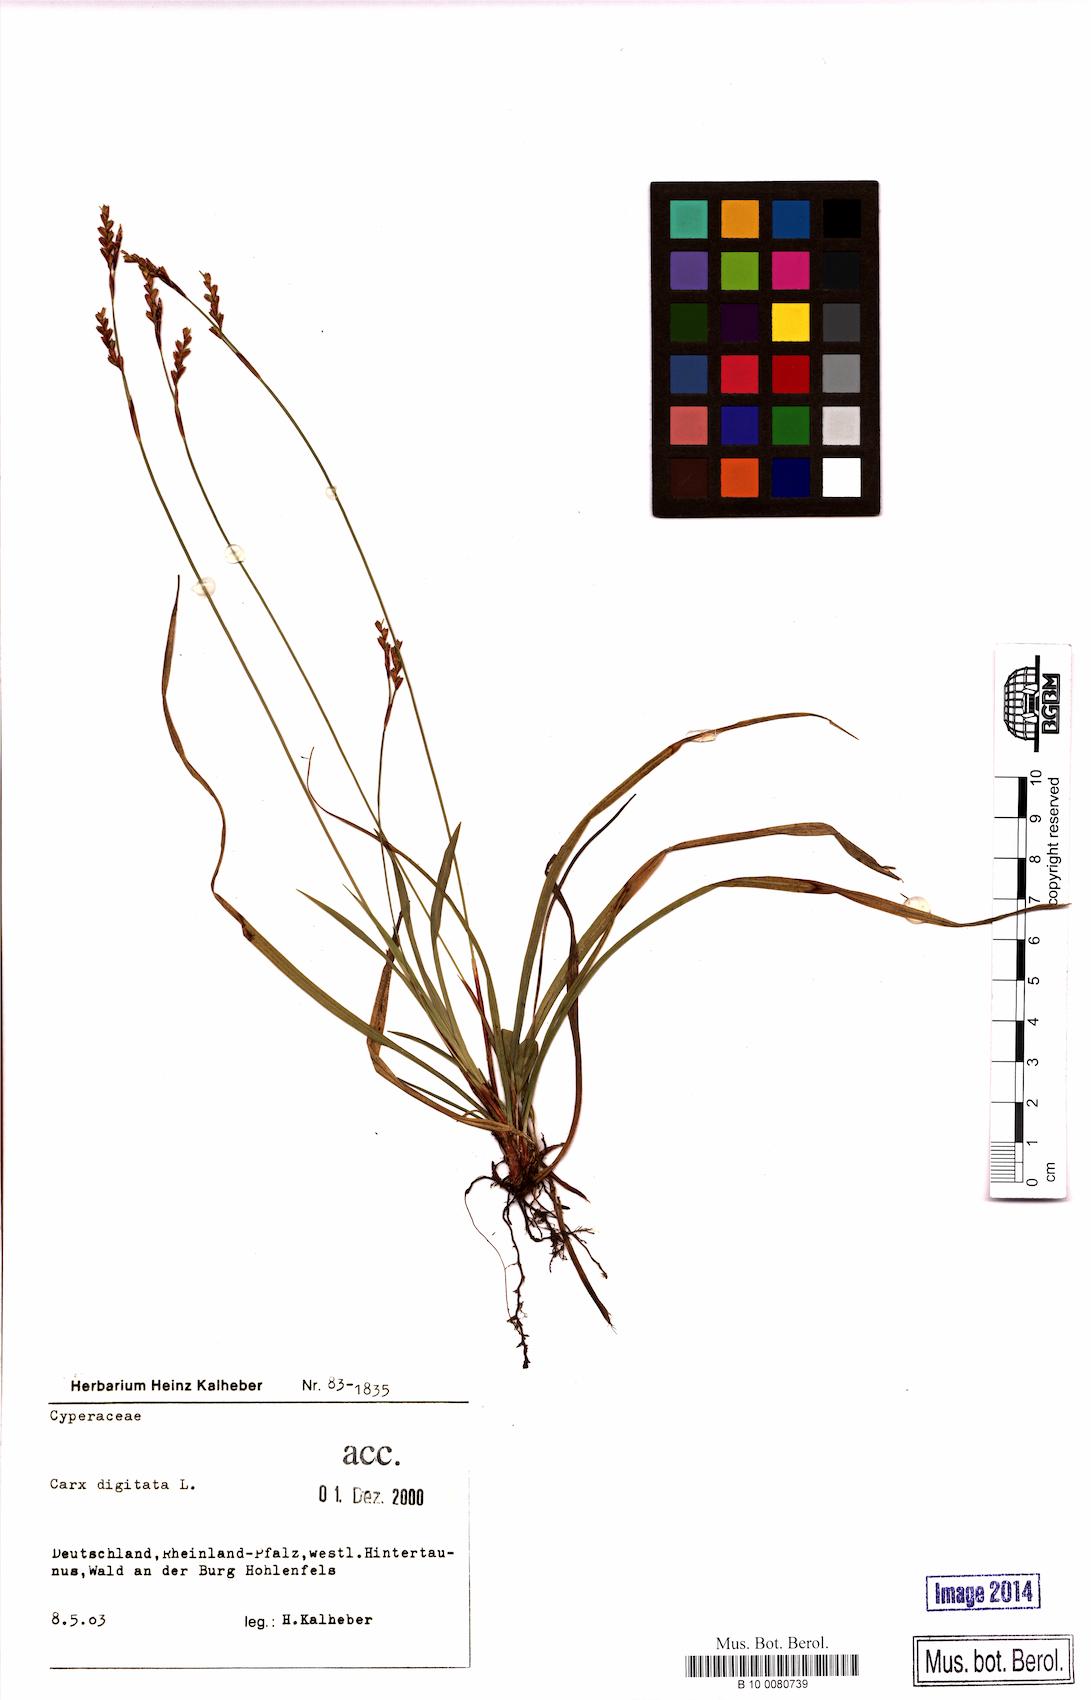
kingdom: Plantae
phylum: Tracheophyta
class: Liliopsida
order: Poales
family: Cyperaceae
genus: Carex
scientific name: Carex digitata
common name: Fingered sedge
